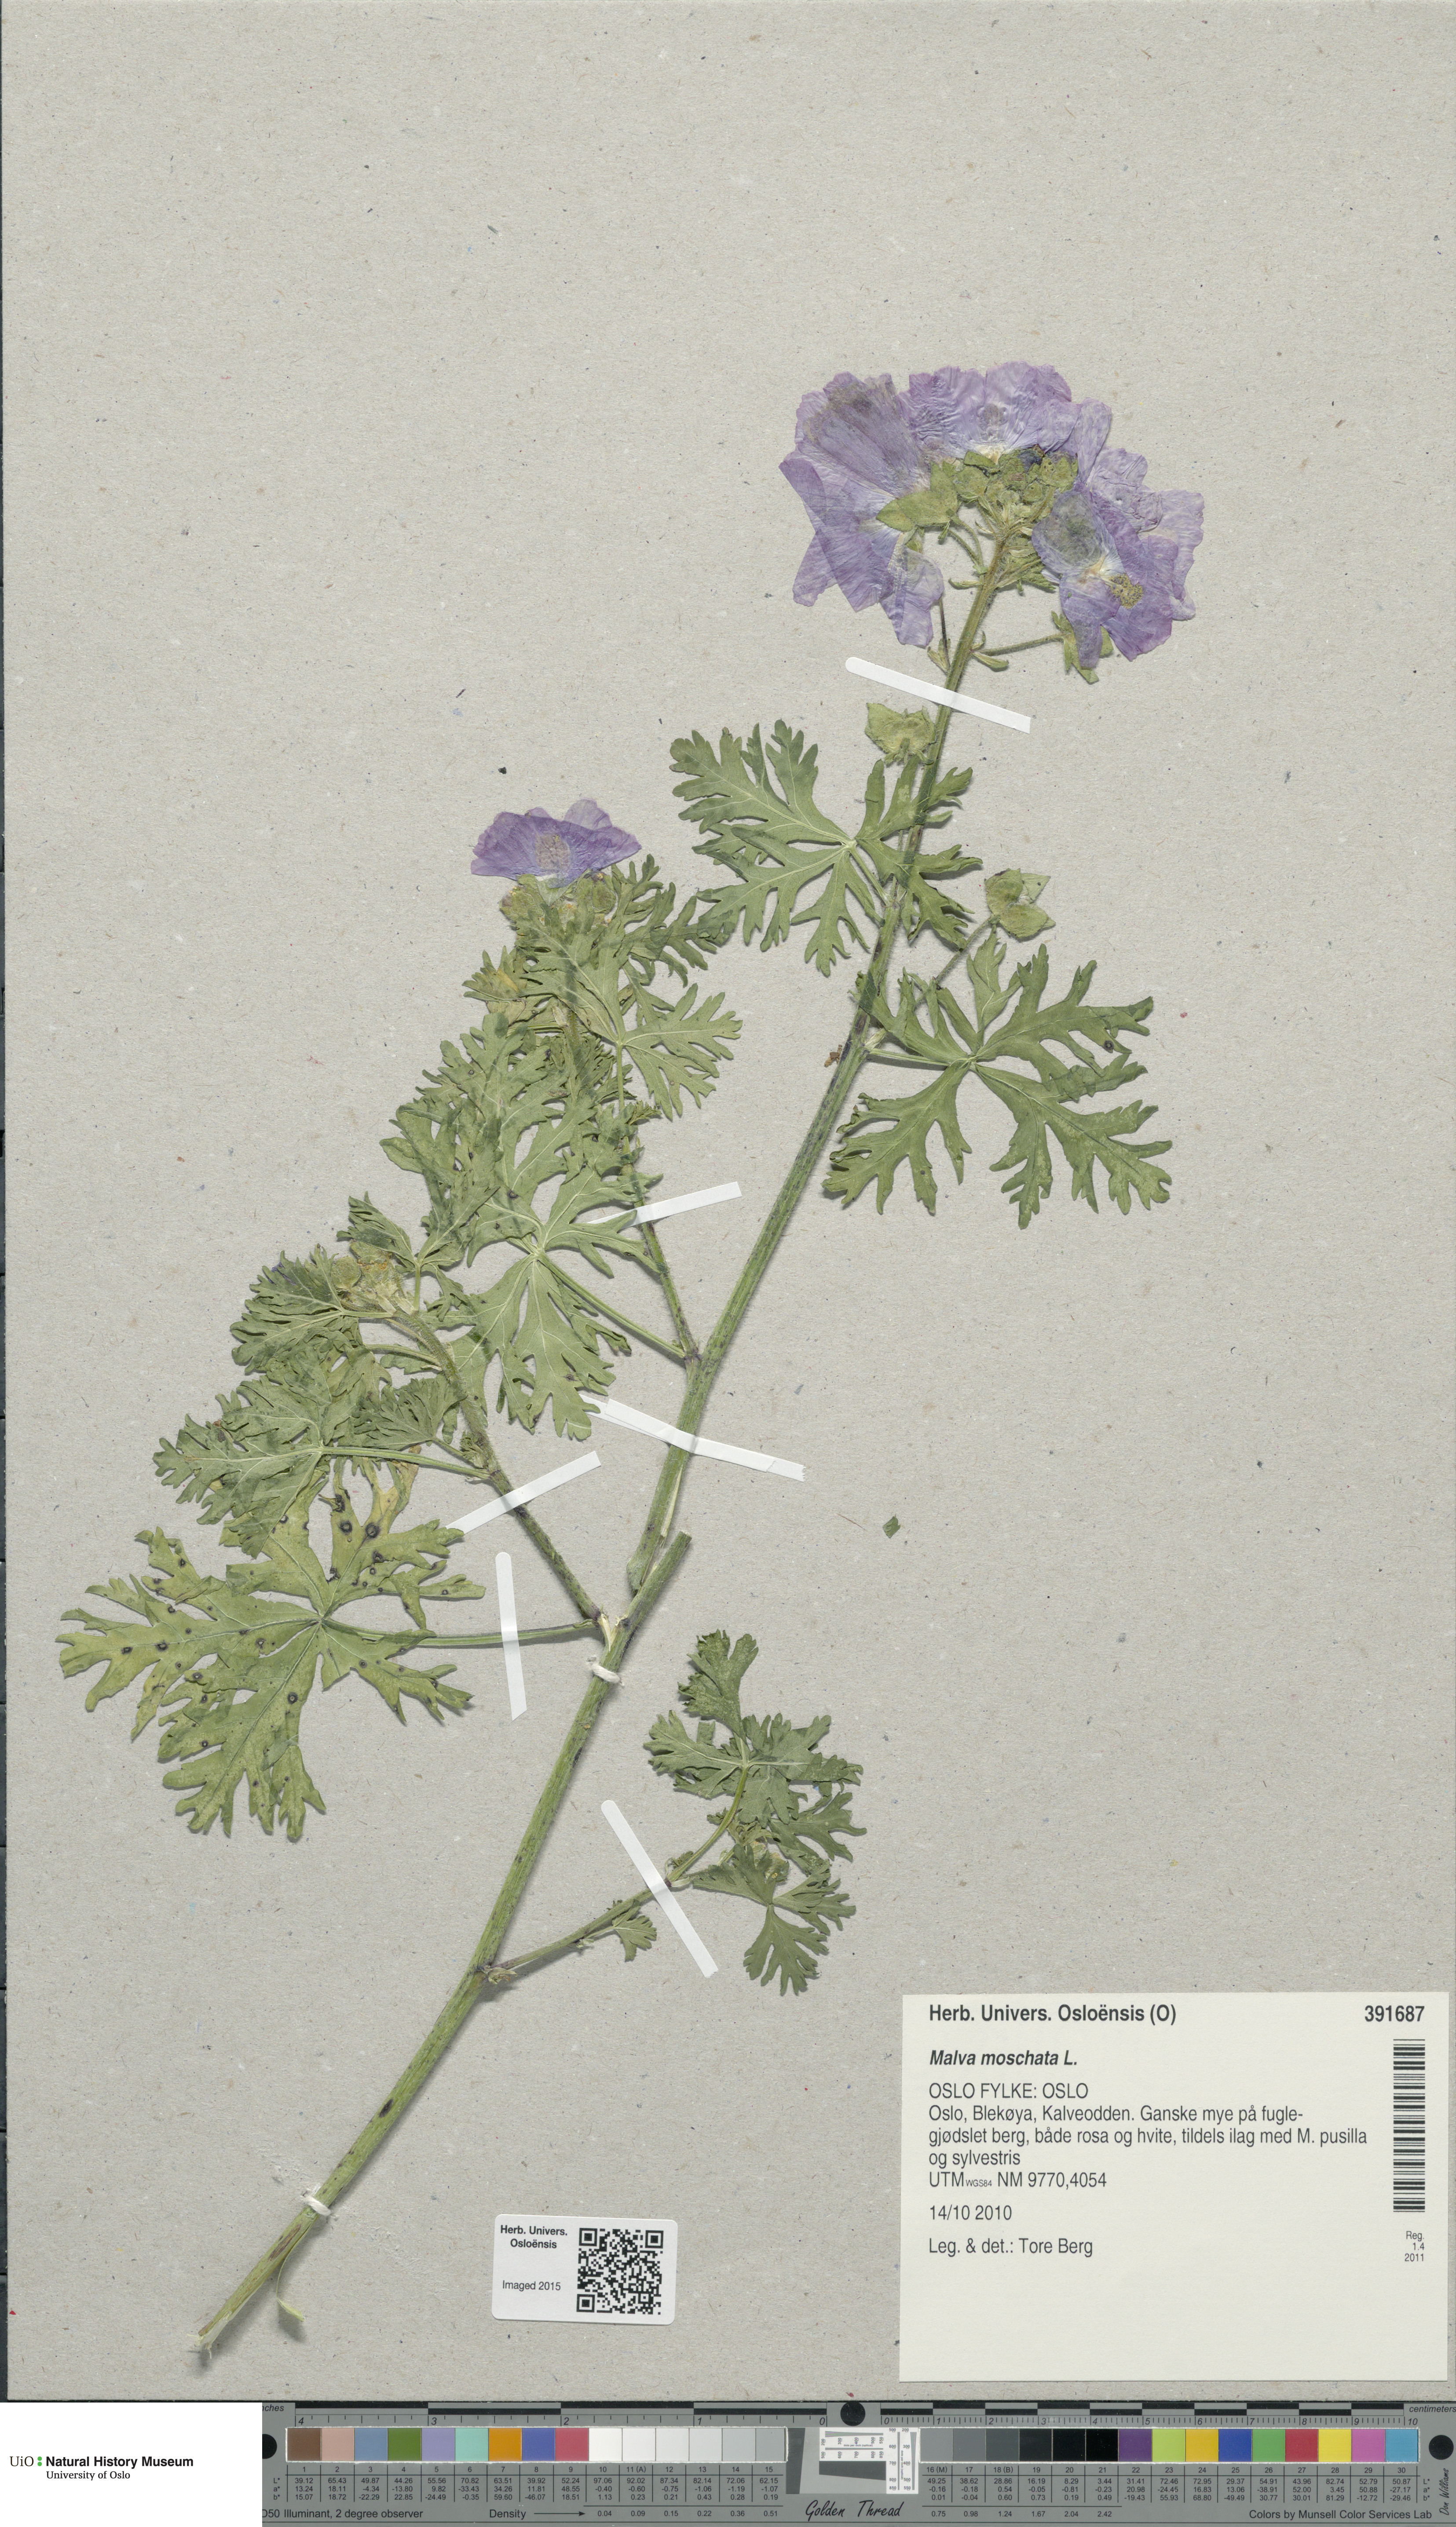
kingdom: Plantae
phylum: Tracheophyta
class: Magnoliopsida
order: Malvales
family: Malvaceae
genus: Malva
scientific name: Malva moschata
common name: Musk mallow
